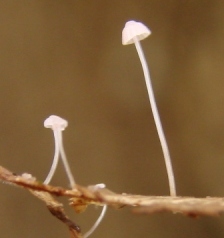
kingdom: Fungi
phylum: Basidiomycota
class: Agaricomycetes
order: Agaricales
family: Mycenaceae
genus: Mycena
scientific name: Mycena smithiana
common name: blegrød huesvamp
